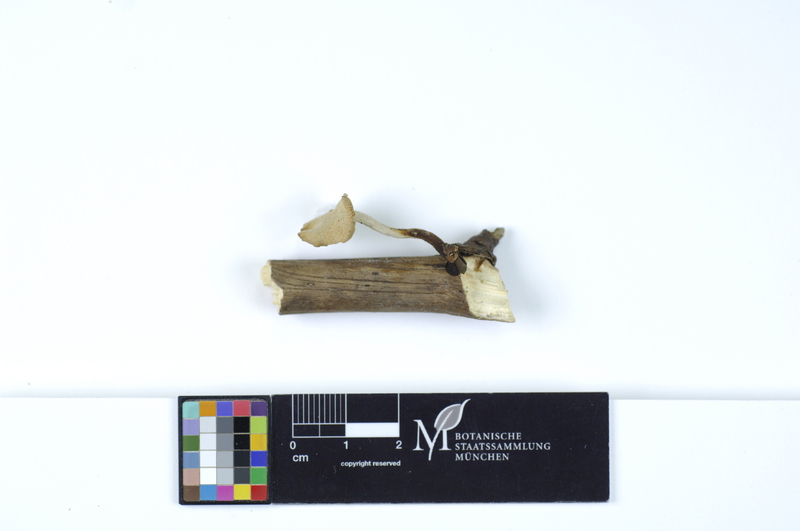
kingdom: Fungi
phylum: Basidiomycota
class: Agaricomycetes
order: Polyporales
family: Polyporaceae
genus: Cerioporus
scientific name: Cerioporus leptocephalus
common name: Blackfoot polypore
